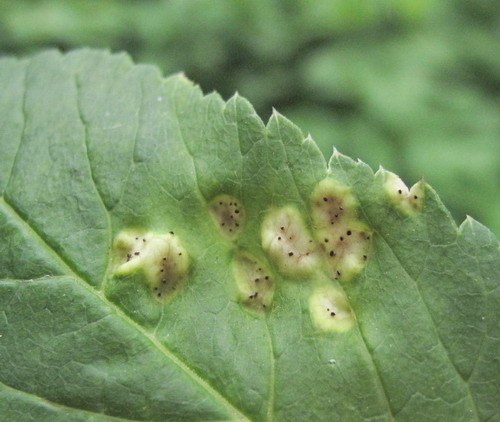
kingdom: Fungi
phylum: Basidiomycota
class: Pucciniomycetes
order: Pucciniales
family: Pucciniaceae
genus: Puccinia
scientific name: Puccinia
